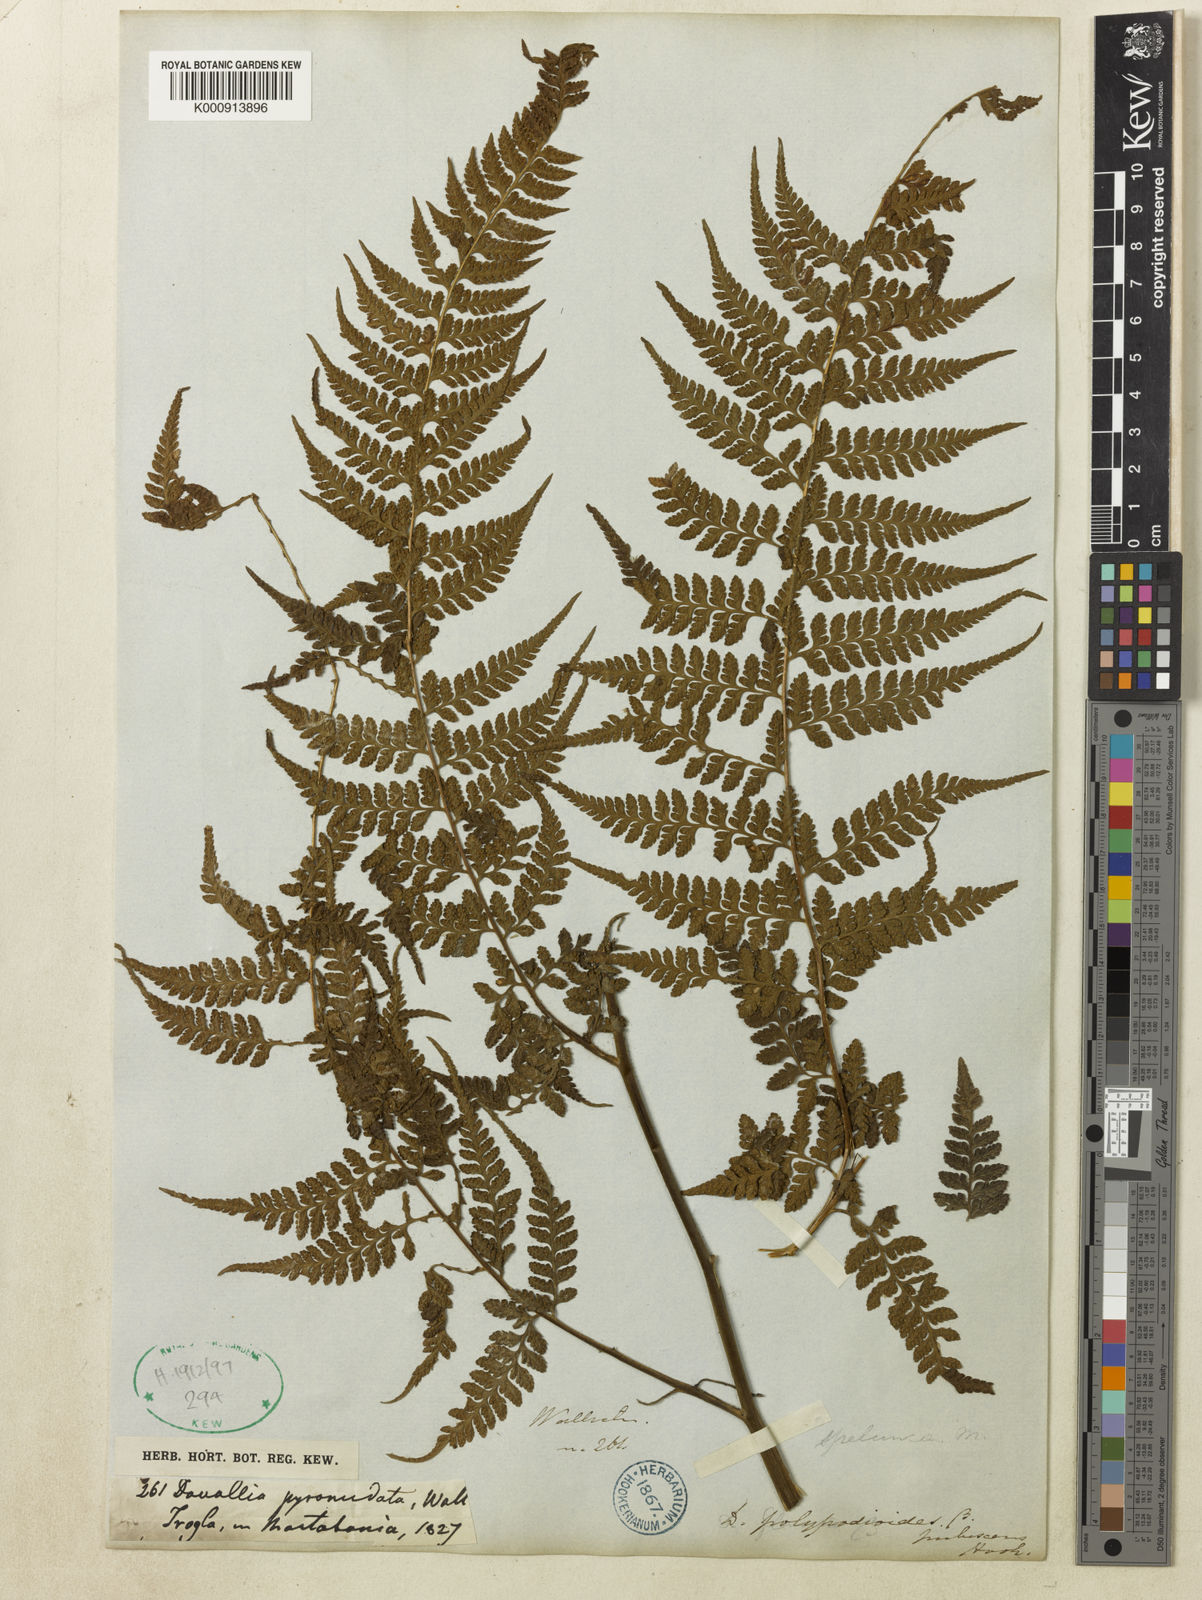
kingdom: Plantae
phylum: Tracheophyta
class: Polypodiopsida
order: Polypodiales
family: Dennstaedtiaceae
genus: Microlepia
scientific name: Microlepia rhomboidea
